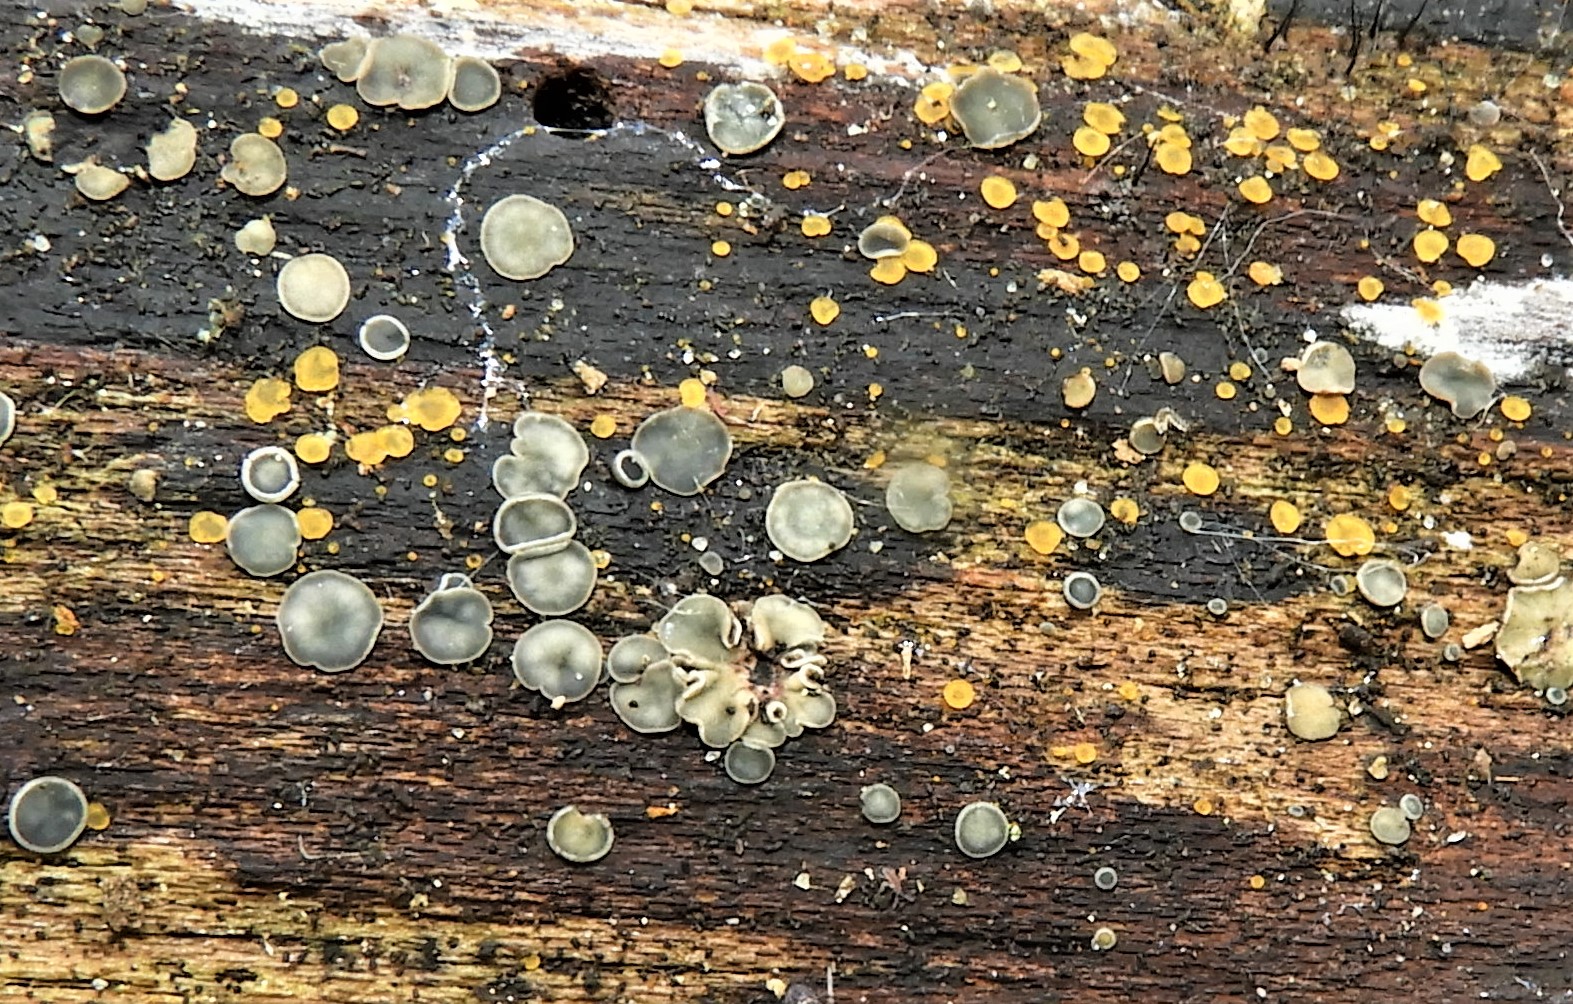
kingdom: Fungi
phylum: Ascomycota
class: Orbiliomycetes
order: Orbiliales
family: Orbiliaceae
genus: Orbilia
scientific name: Orbilia xanthostigma
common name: krumsporet voksskive
